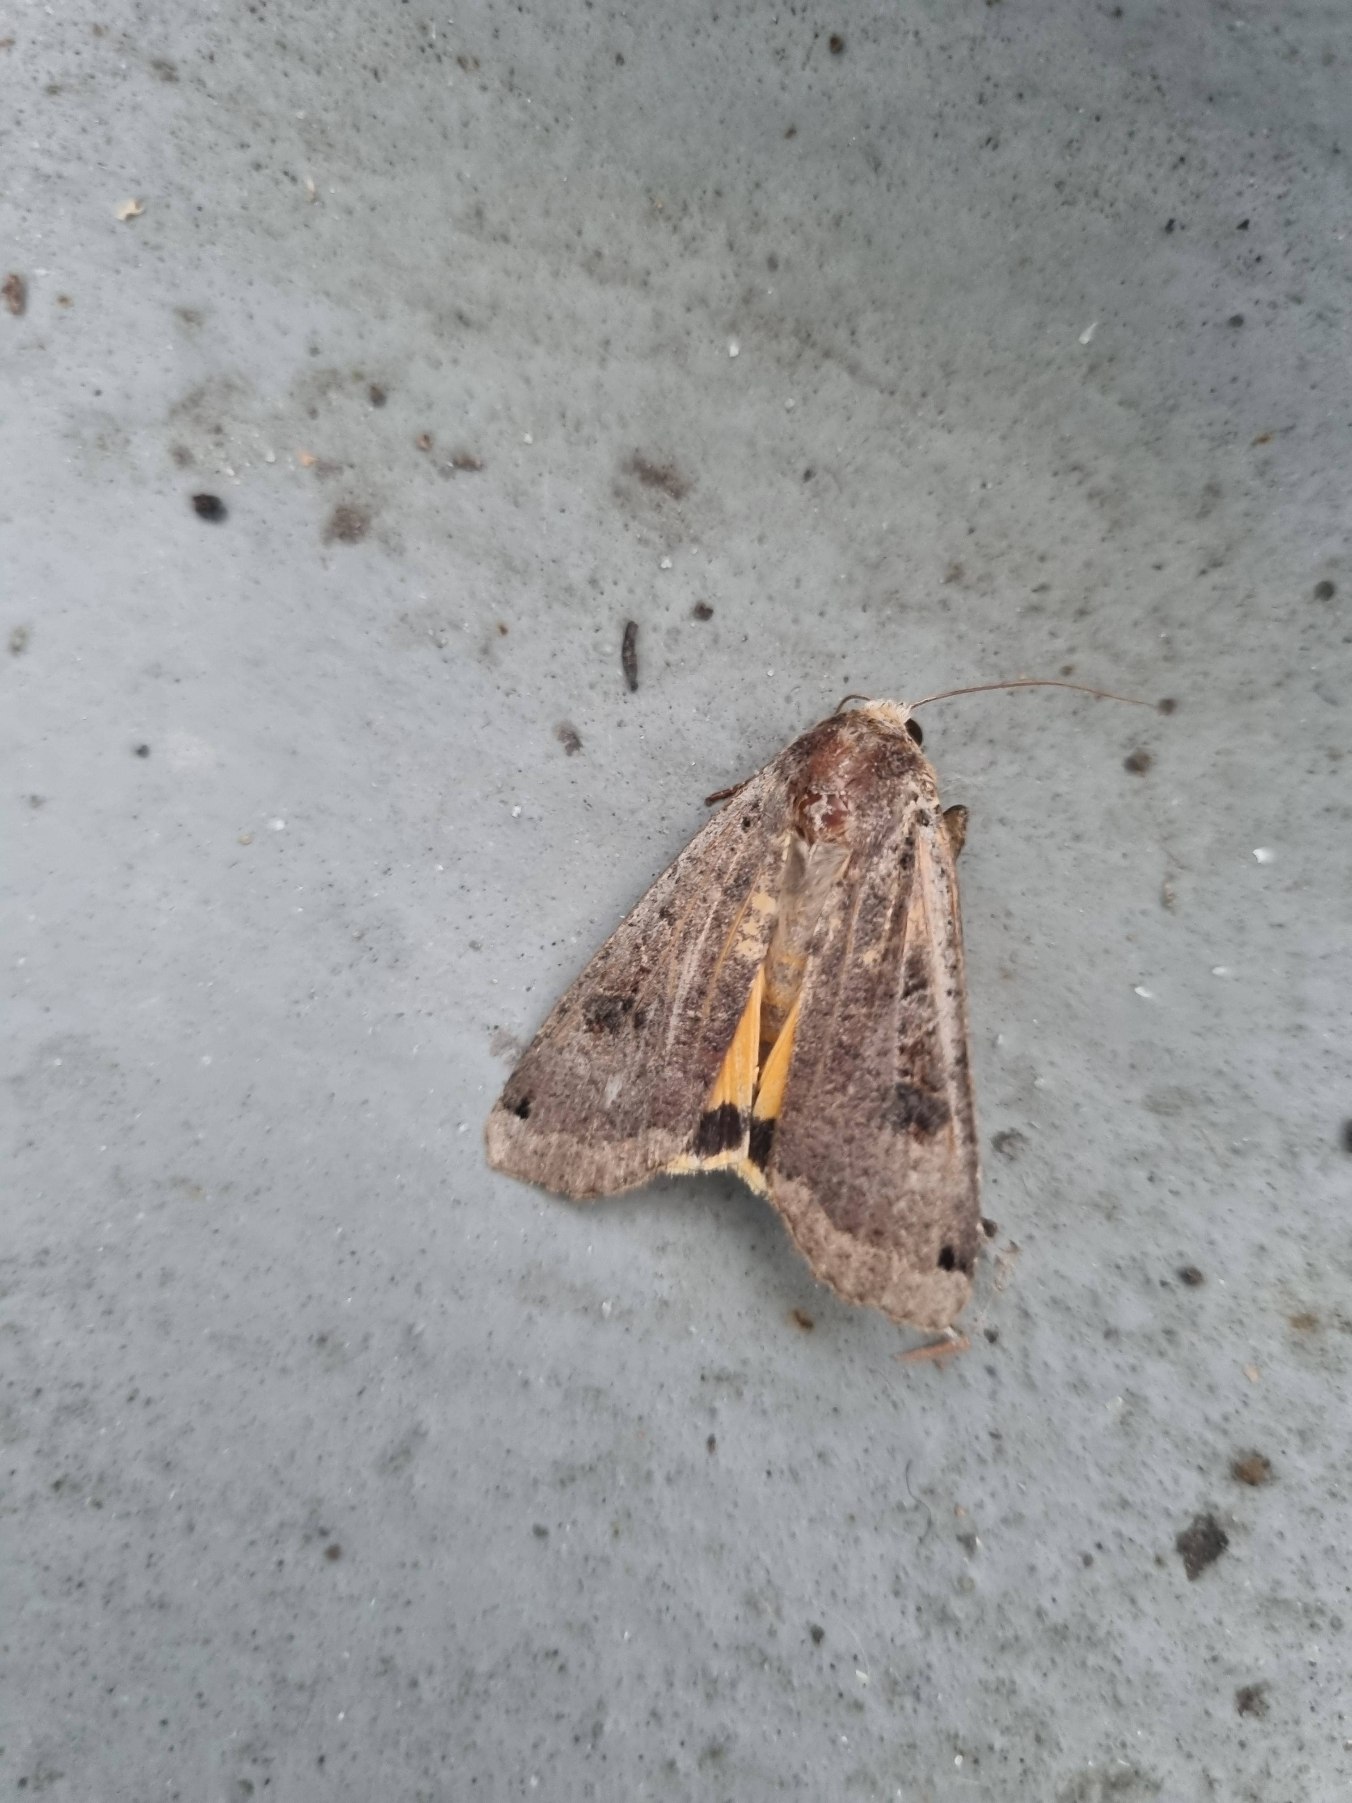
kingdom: Animalia
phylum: Arthropoda
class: Insecta
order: Lepidoptera
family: Noctuidae
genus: Noctua
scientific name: Noctua pronuba
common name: Stor smutugle
